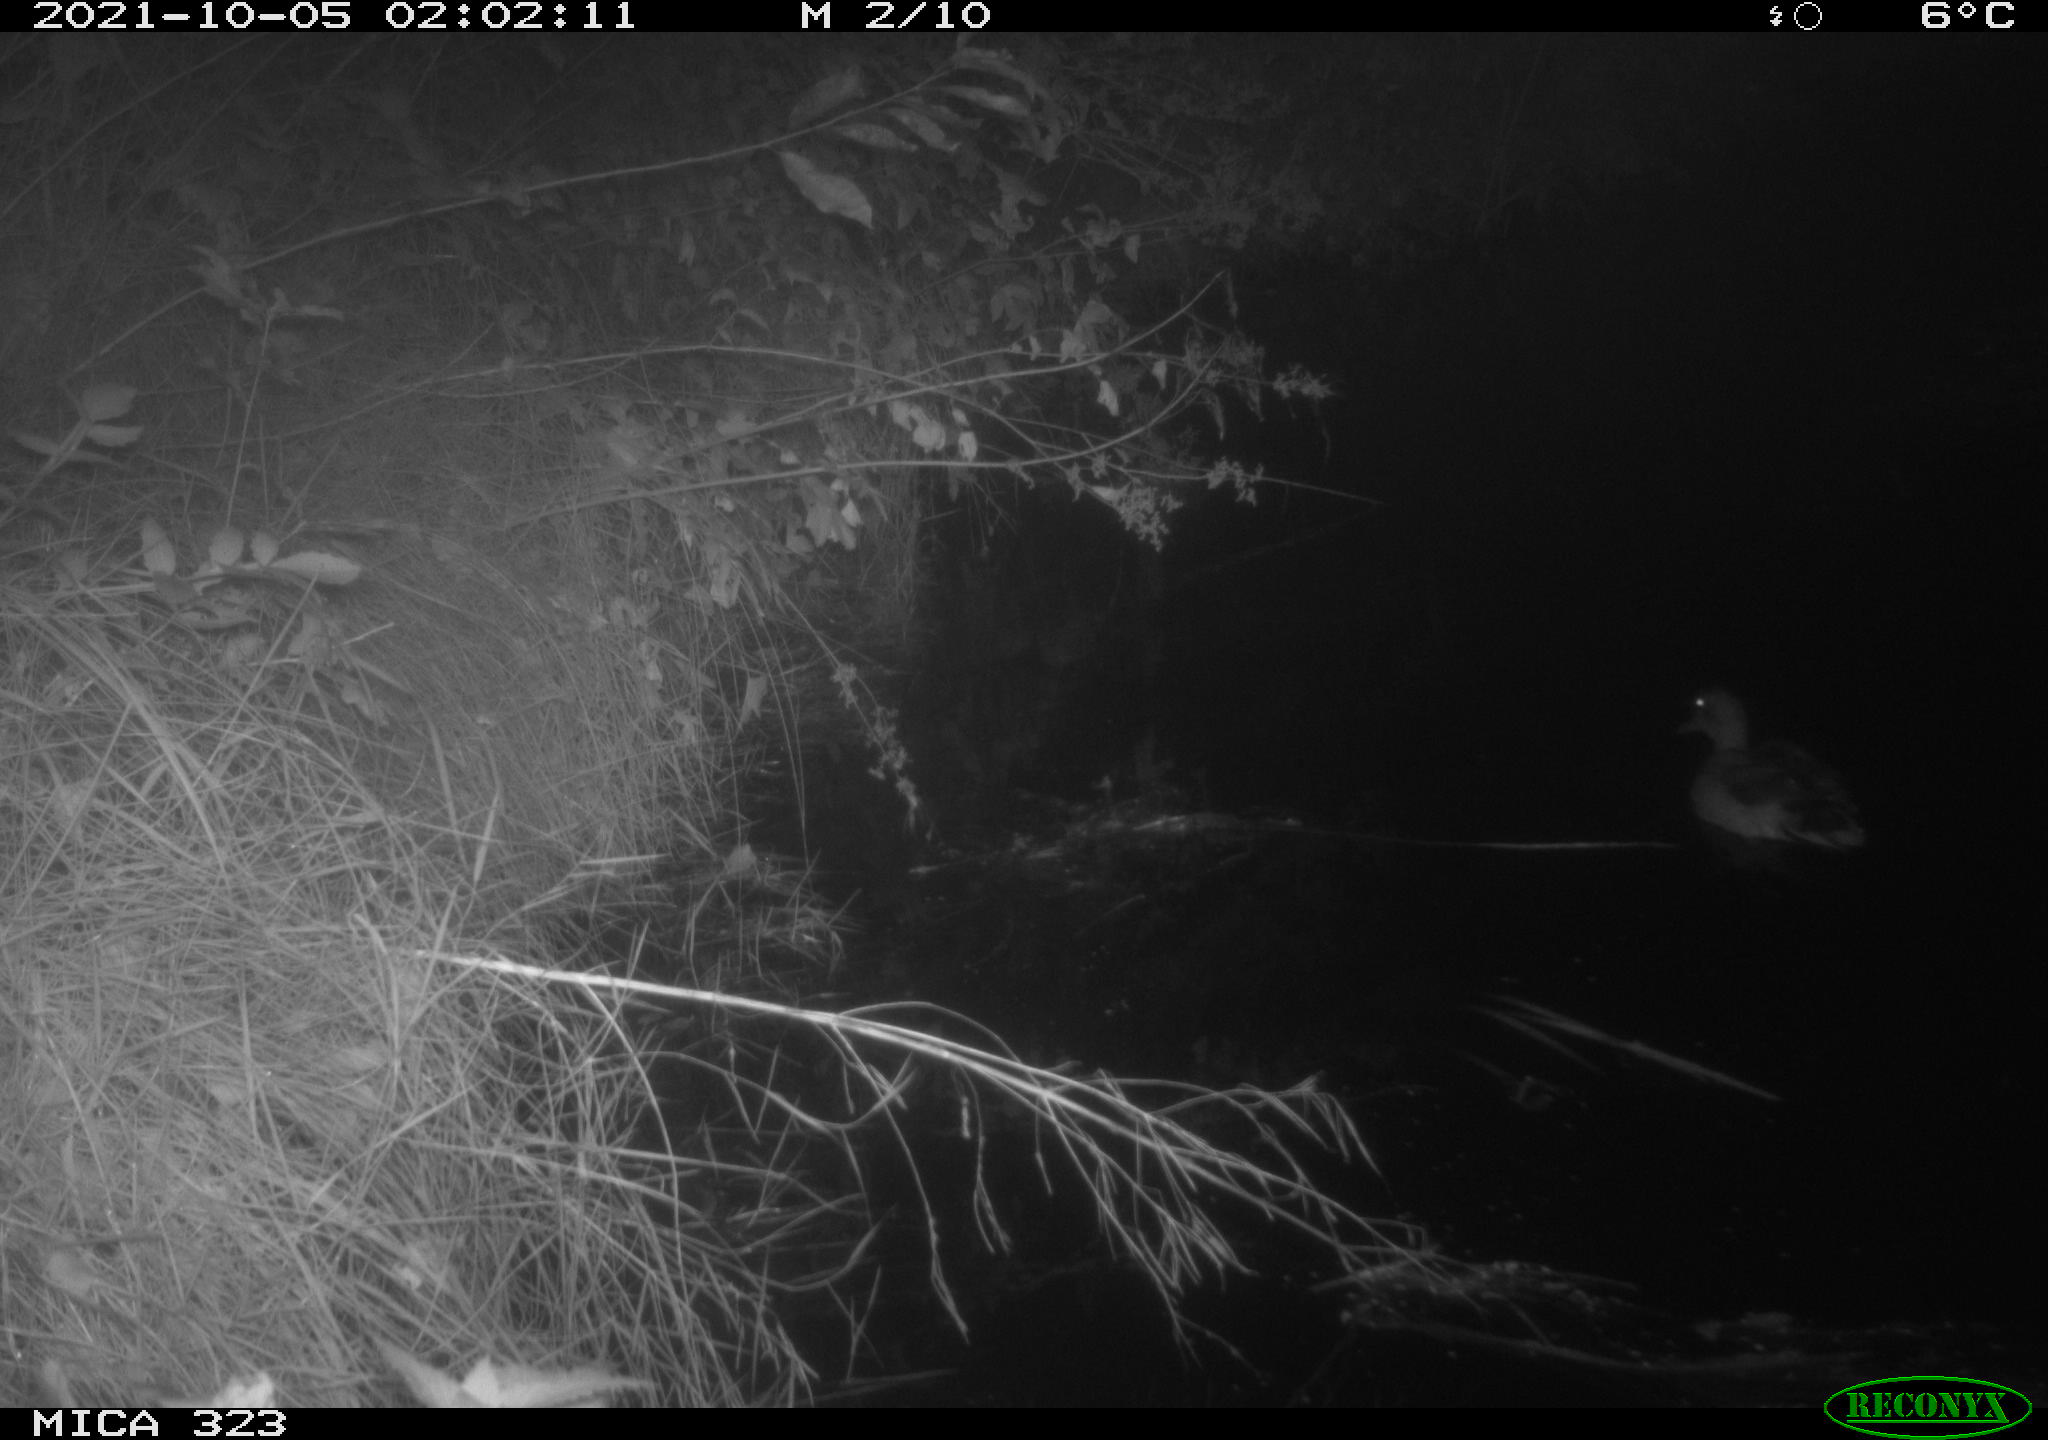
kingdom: Animalia
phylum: Chordata
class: Aves
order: Anseriformes
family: Anatidae
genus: Anas
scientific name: Anas
